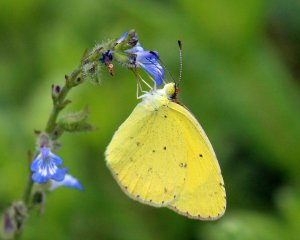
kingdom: Animalia
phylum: Arthropoda
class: Insecta
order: Lepidoptera
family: Pieridae
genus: Pyrisitia
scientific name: Pyrisitia lisa
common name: Little Yellow
